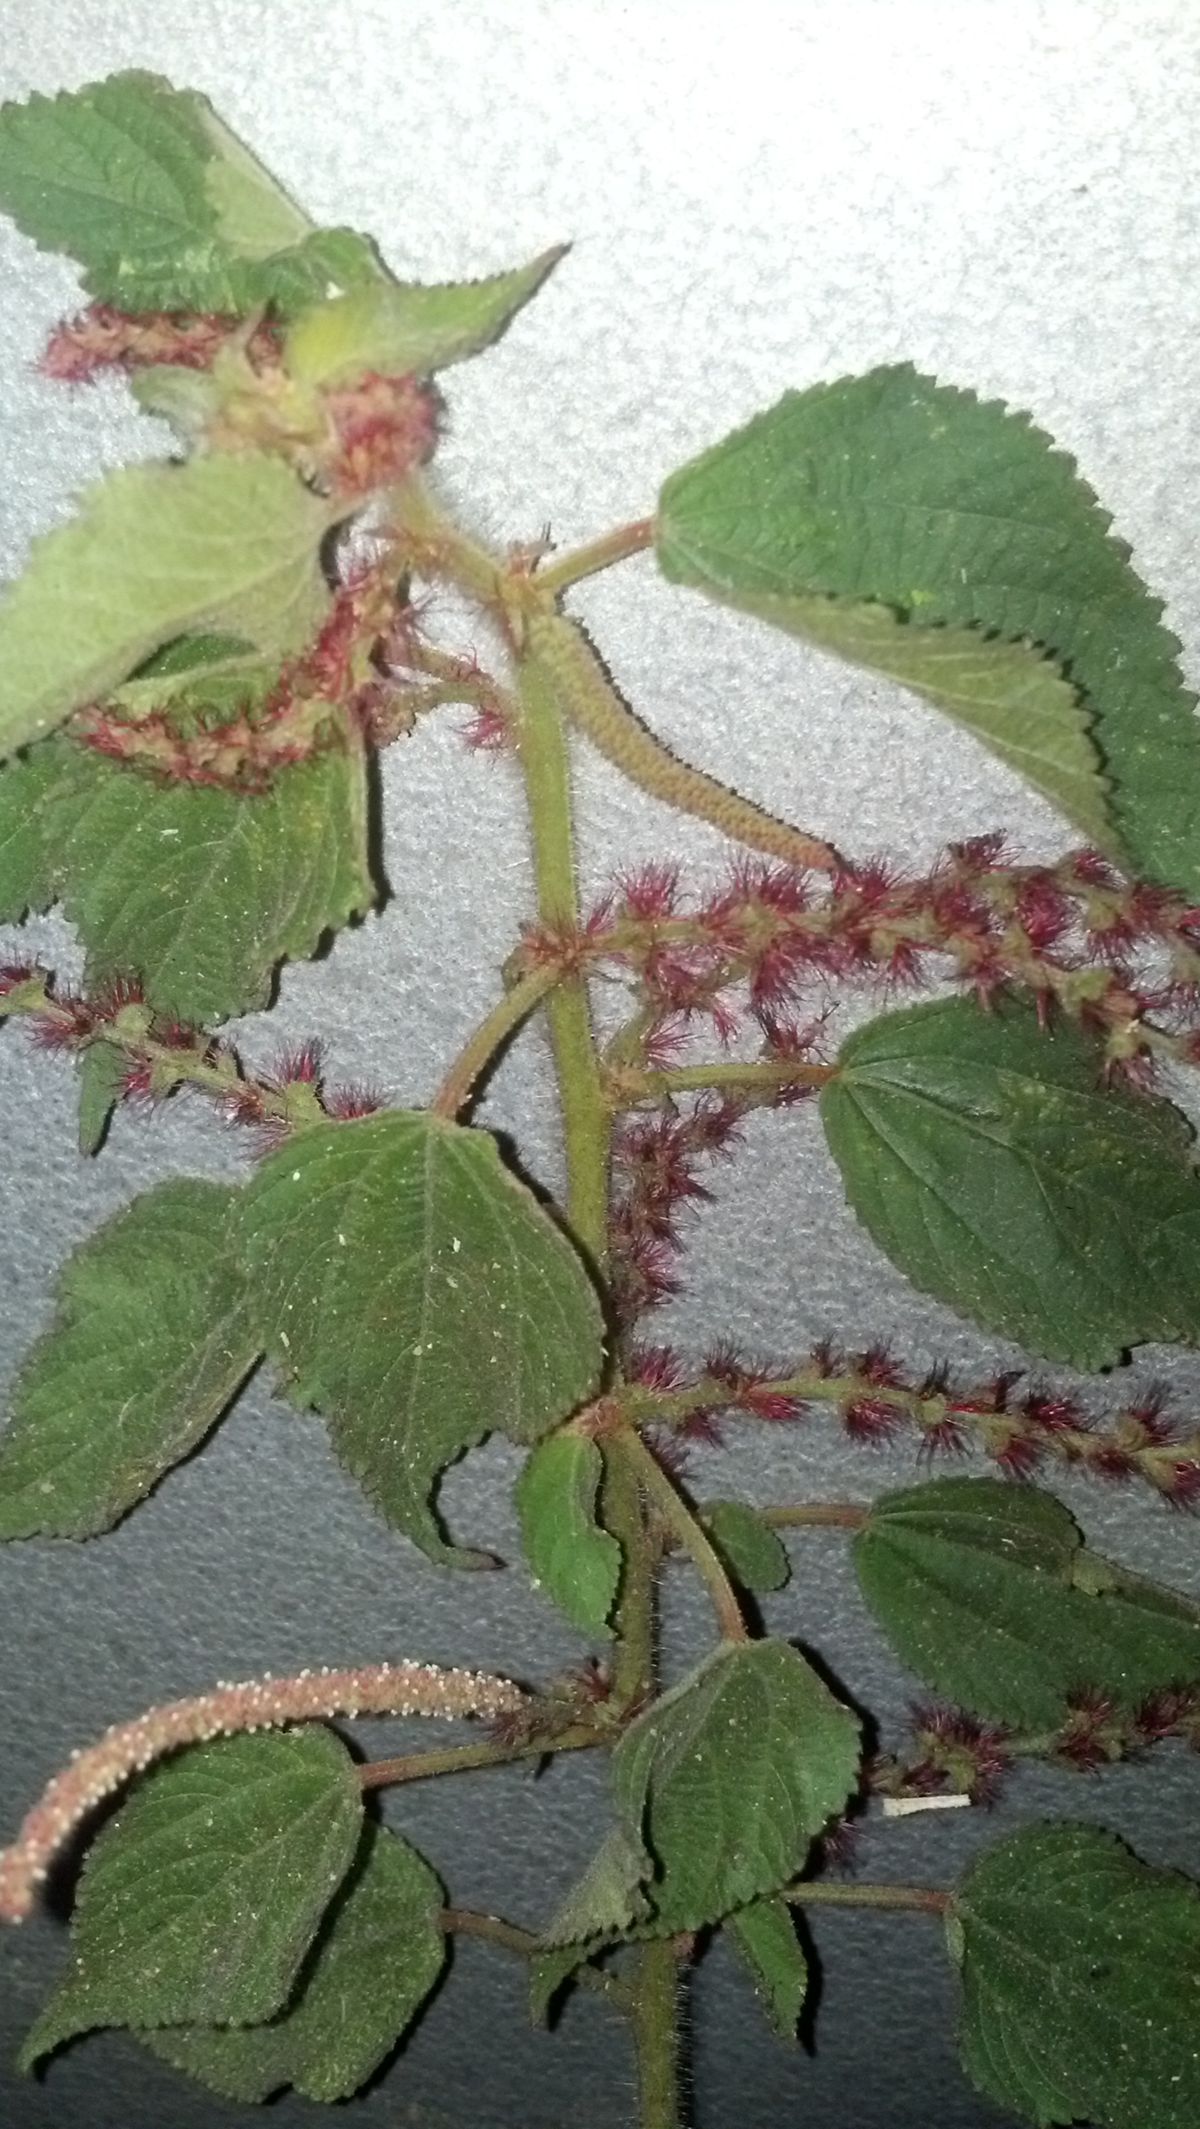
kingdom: Plantae
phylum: Tracheophyta
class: Magnoliopsida
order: Malpighiales
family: Euphorbiaceae
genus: Acalypha
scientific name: Acalypha
